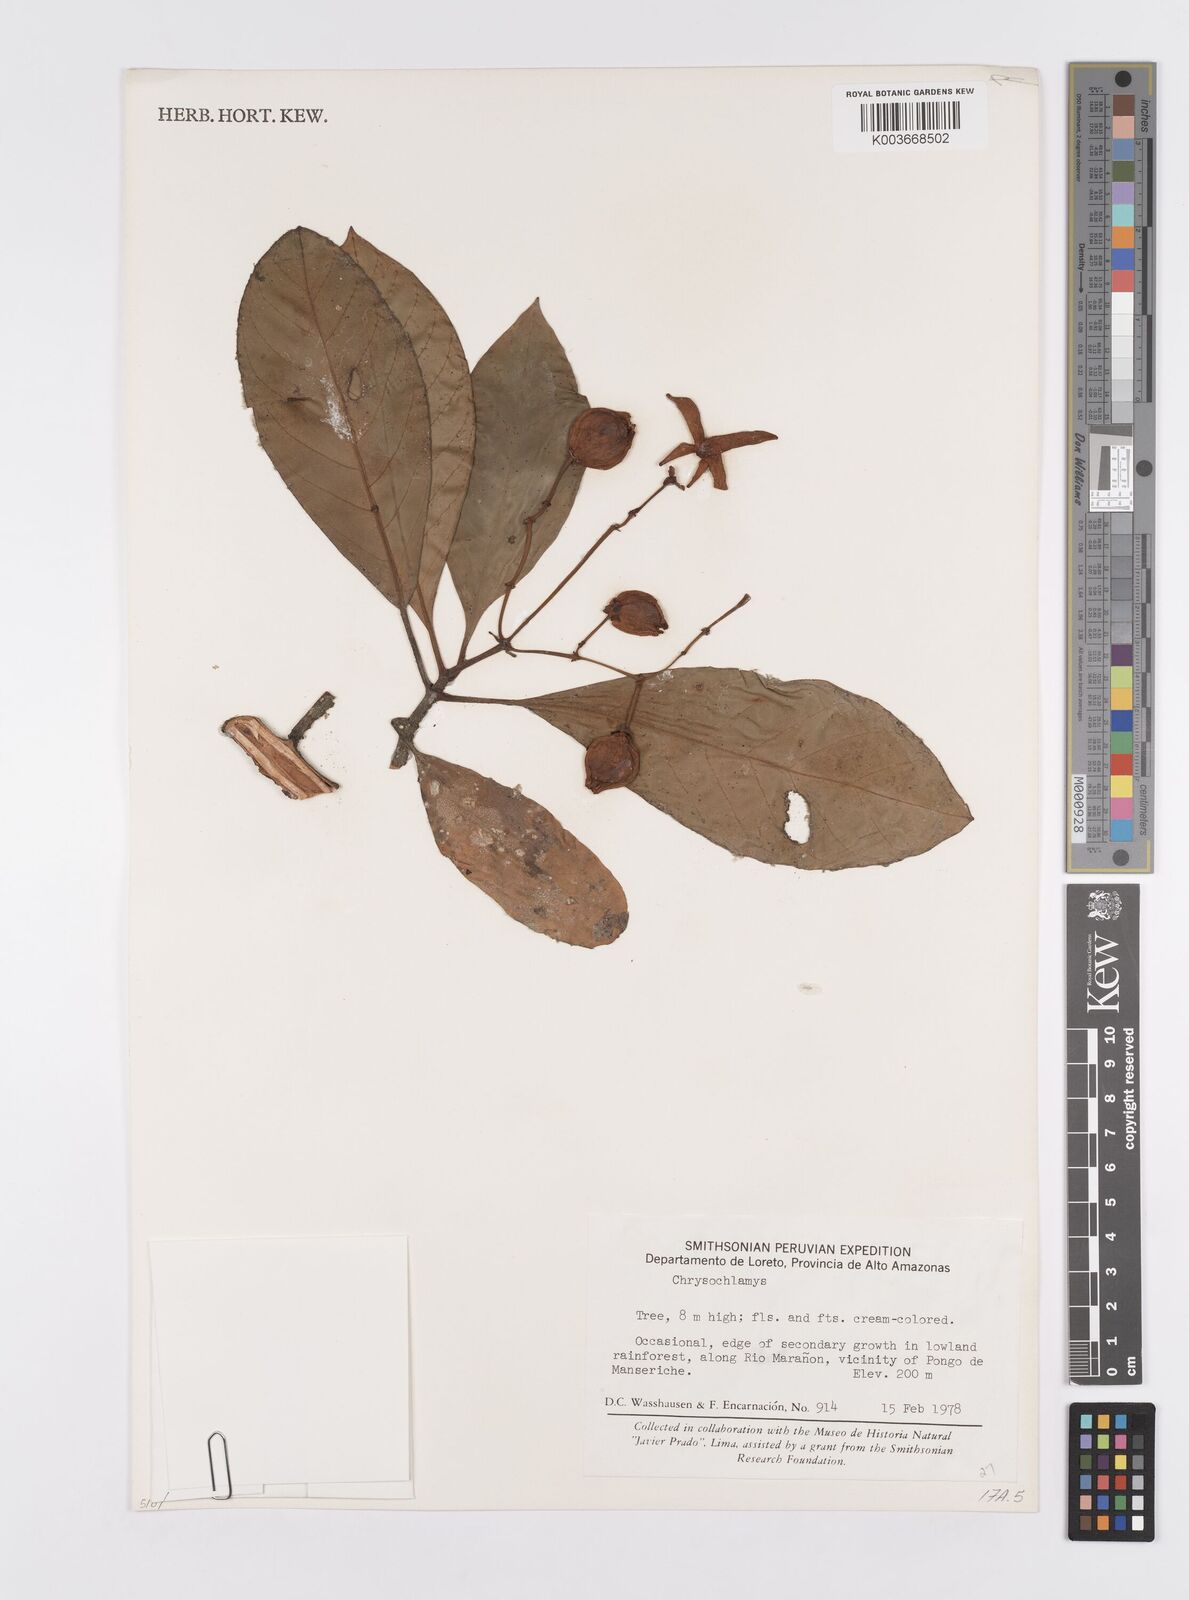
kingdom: Plantae
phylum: Tracheophyta
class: Magnoliopsida
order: Malpighiales
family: Clusiaceae
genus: Chrysochlamys
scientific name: Chrysochlamys
